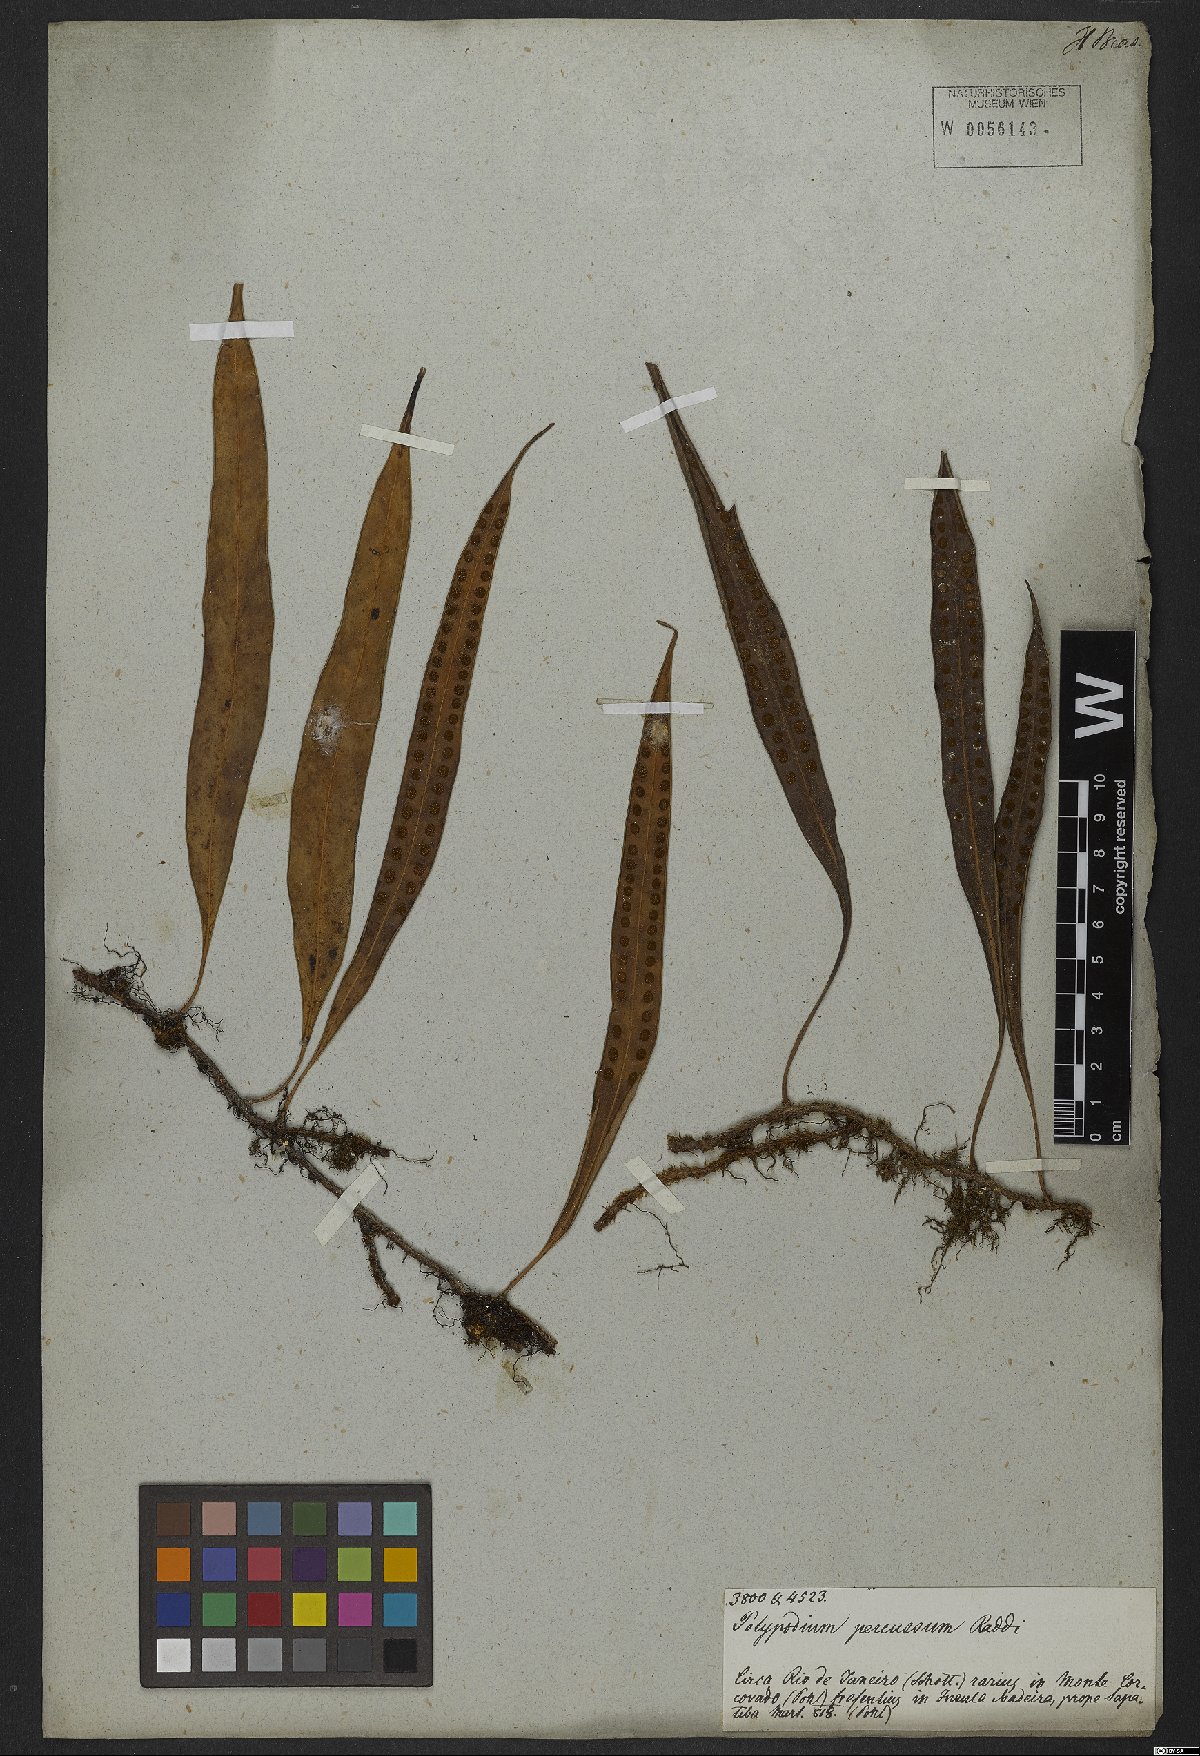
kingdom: Plantae
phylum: Tracheophyta
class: Polypodiopsida
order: Polypodiales
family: Polypodiaceae
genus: Microgramma
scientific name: Microgramma percussa
